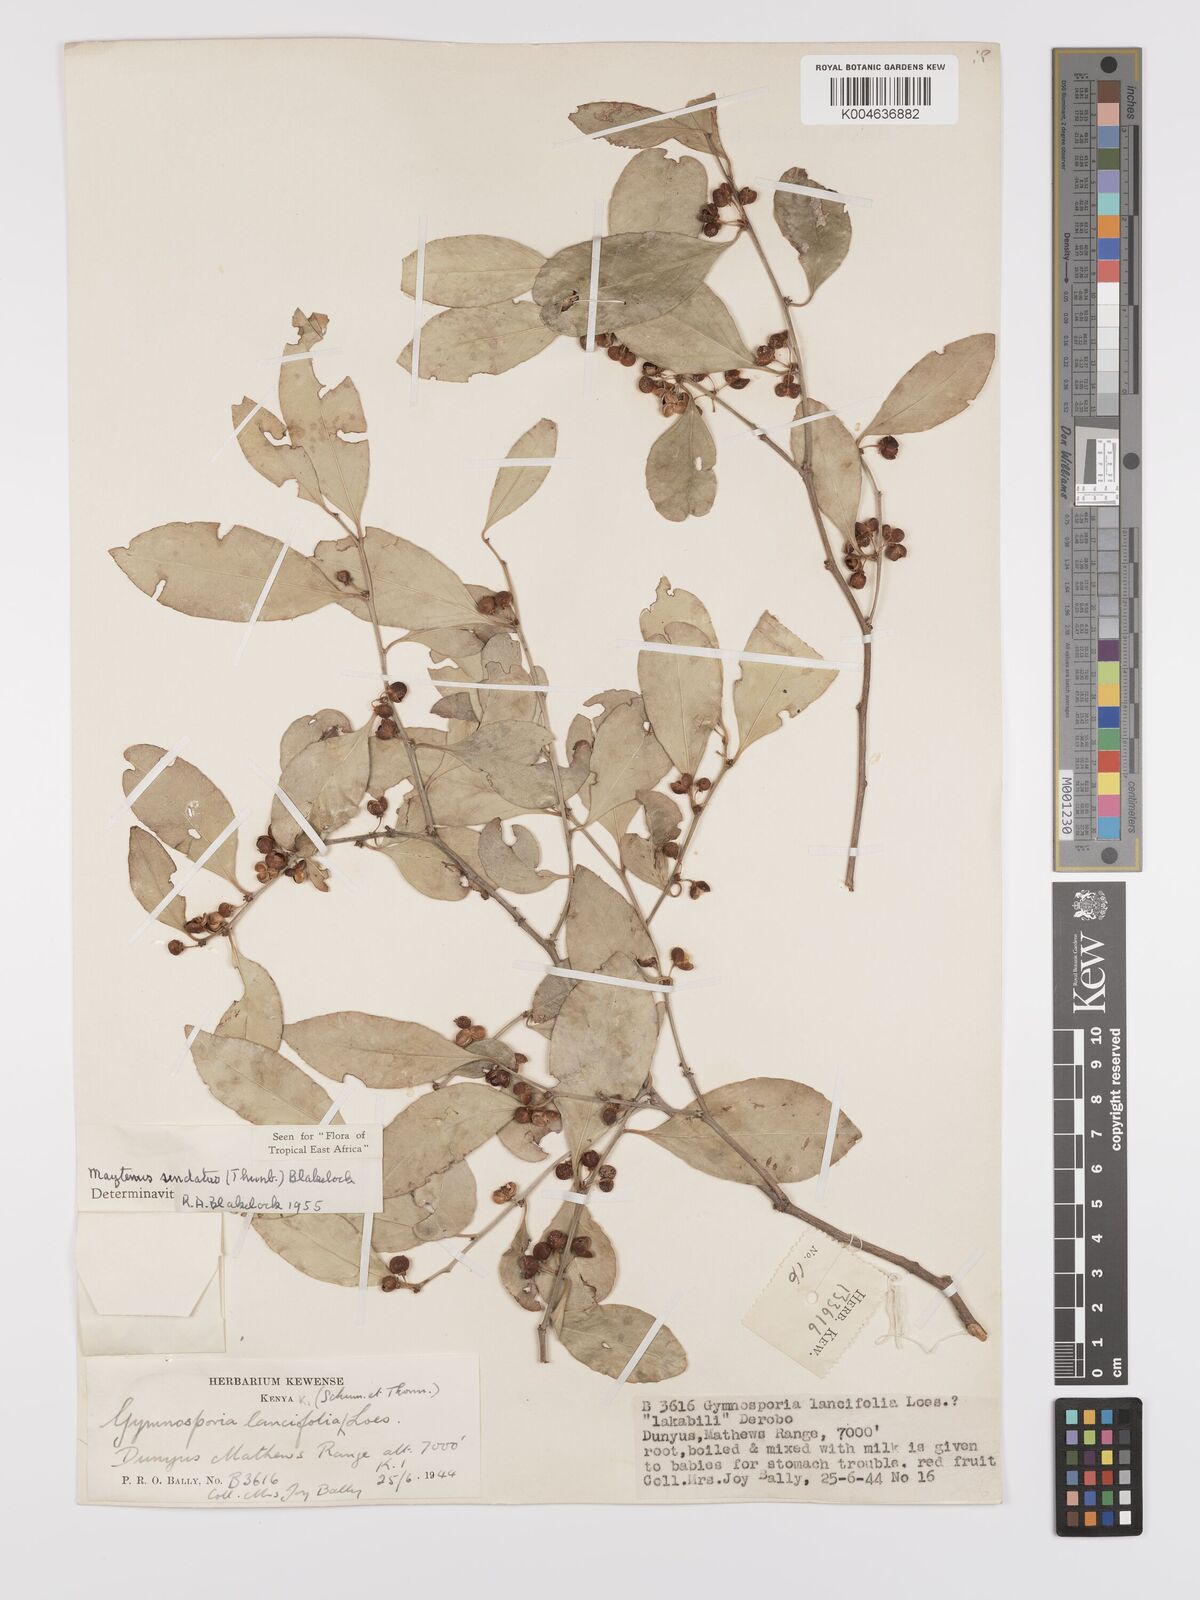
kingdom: Plantae
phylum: Tracheophyta
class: Magnoliopsida
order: Celastrales
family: Celastraceae
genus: Gymnosporia
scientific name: Gymnosporia undata
